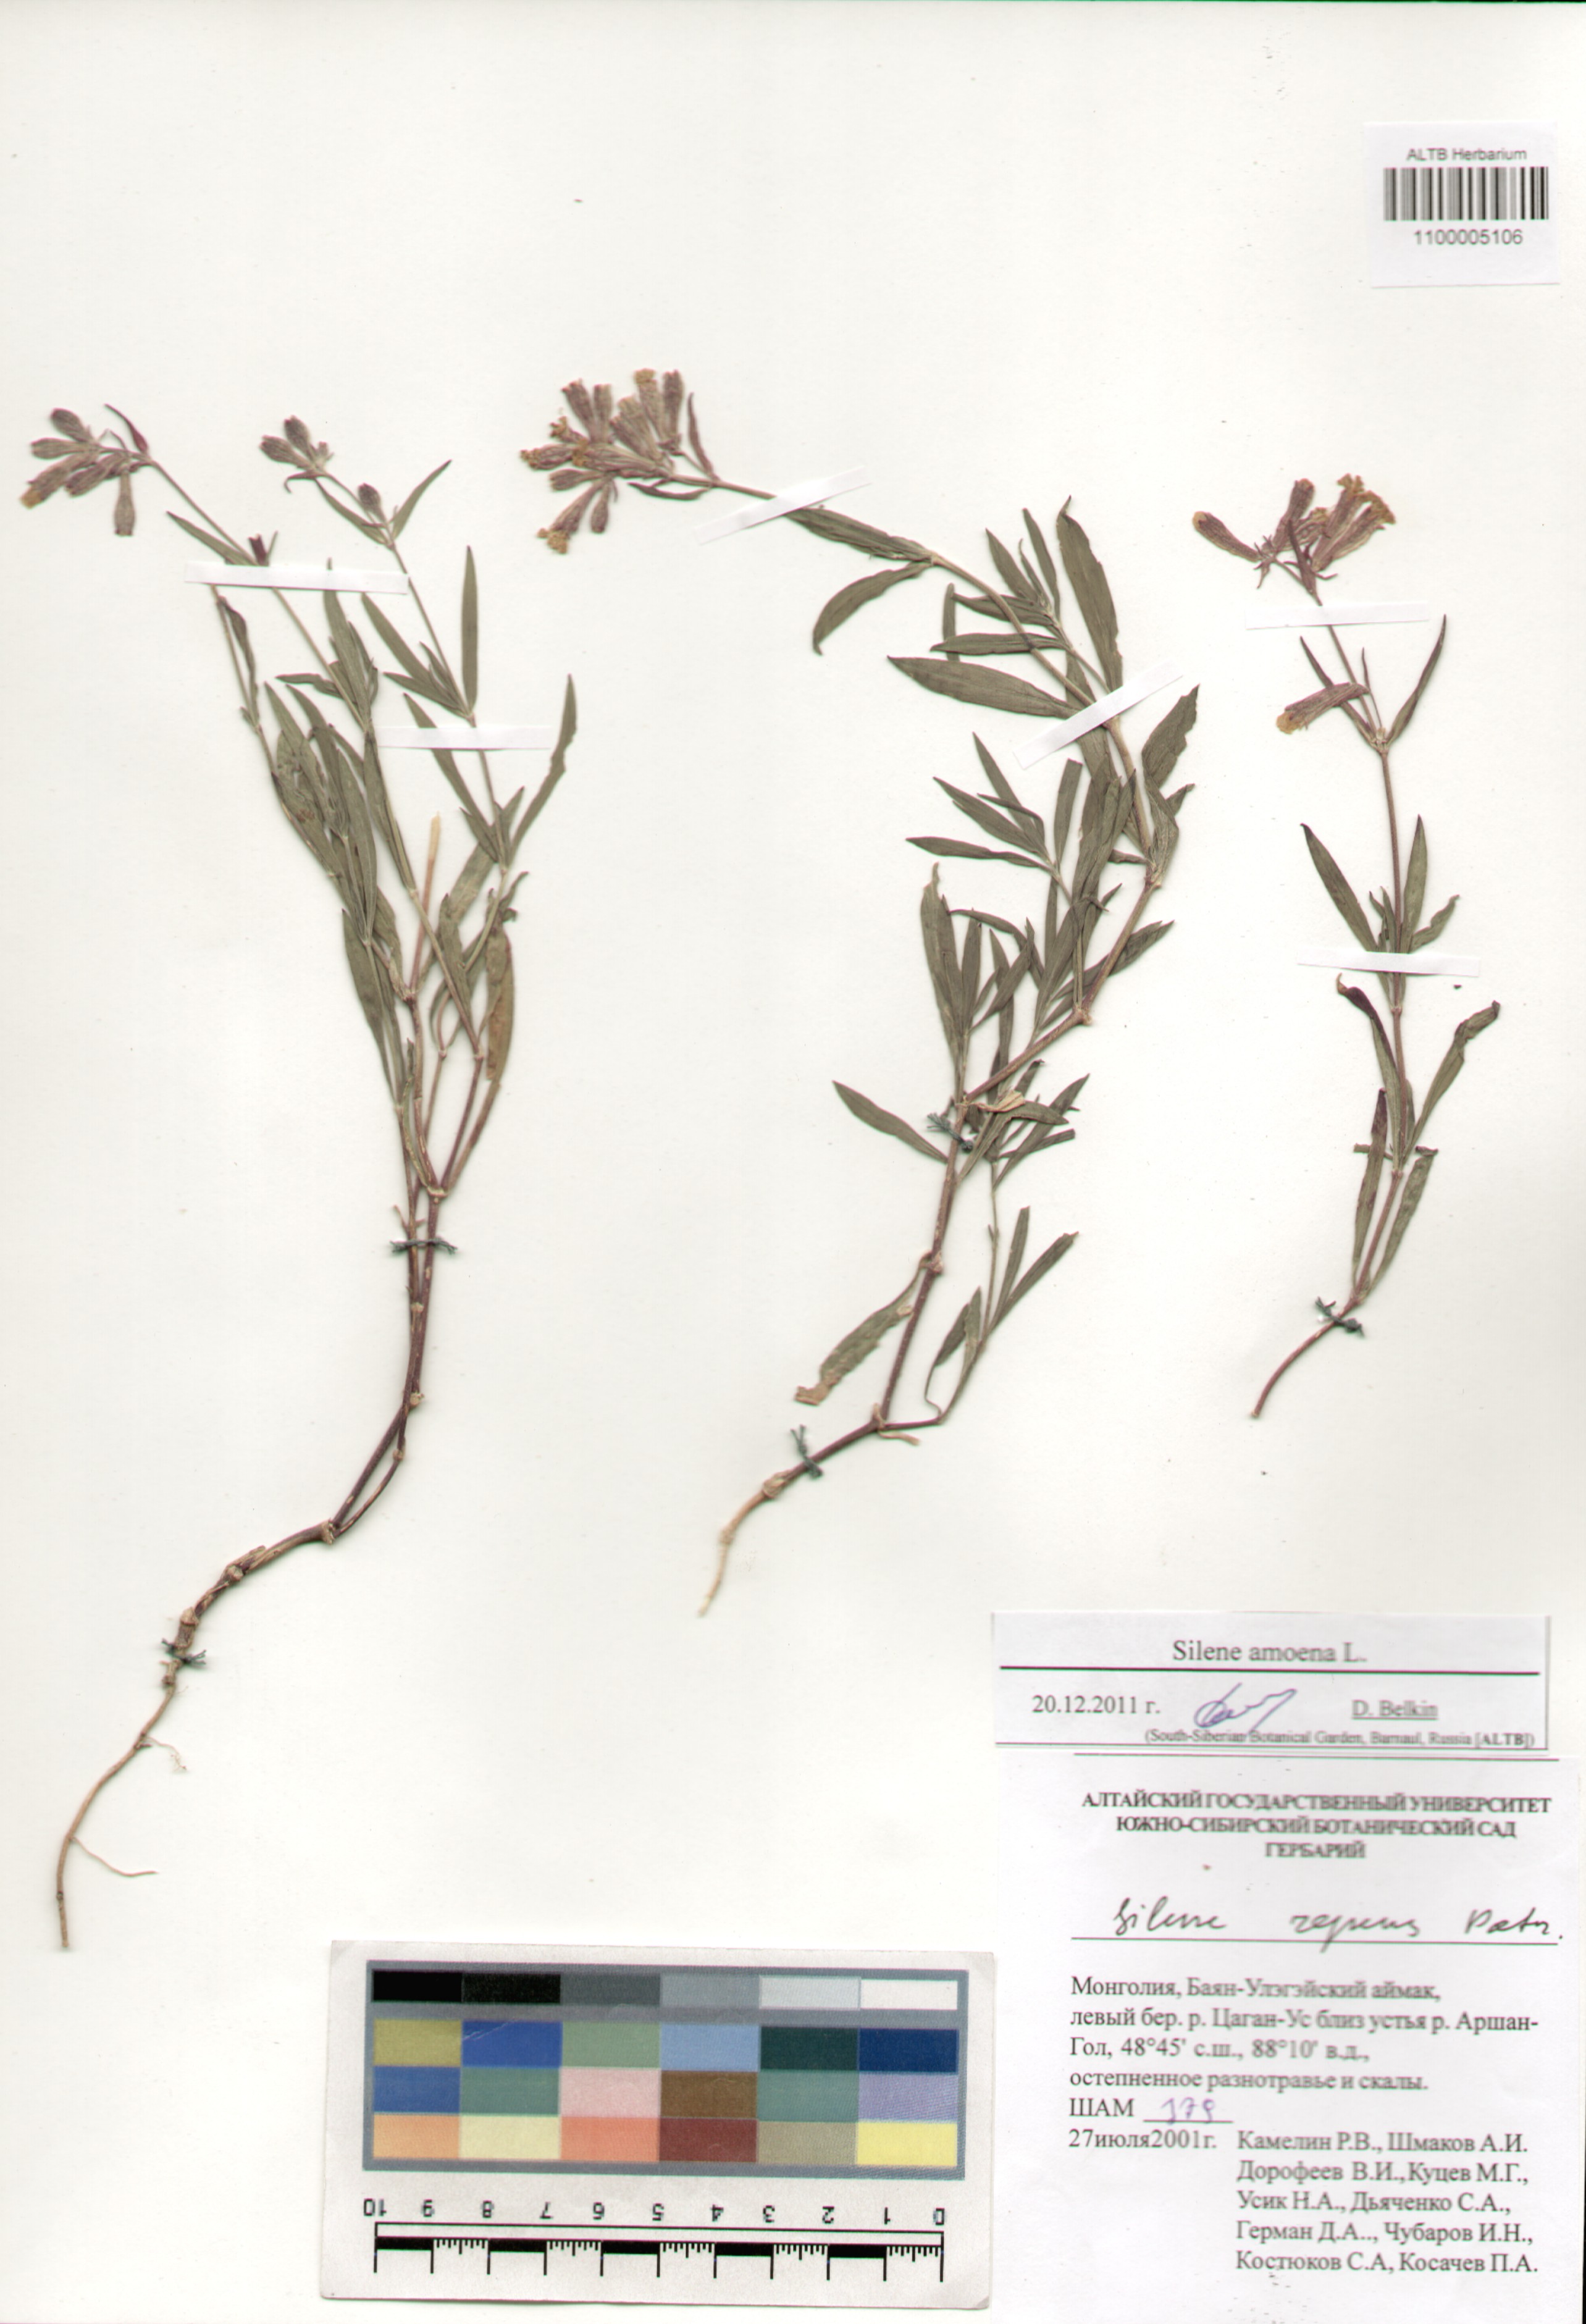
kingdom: Plantae
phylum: Tracheophyta
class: Magnoliopsida
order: Caryophyllales
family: Caryophyllaceae
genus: Silene
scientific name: Silene amoena
